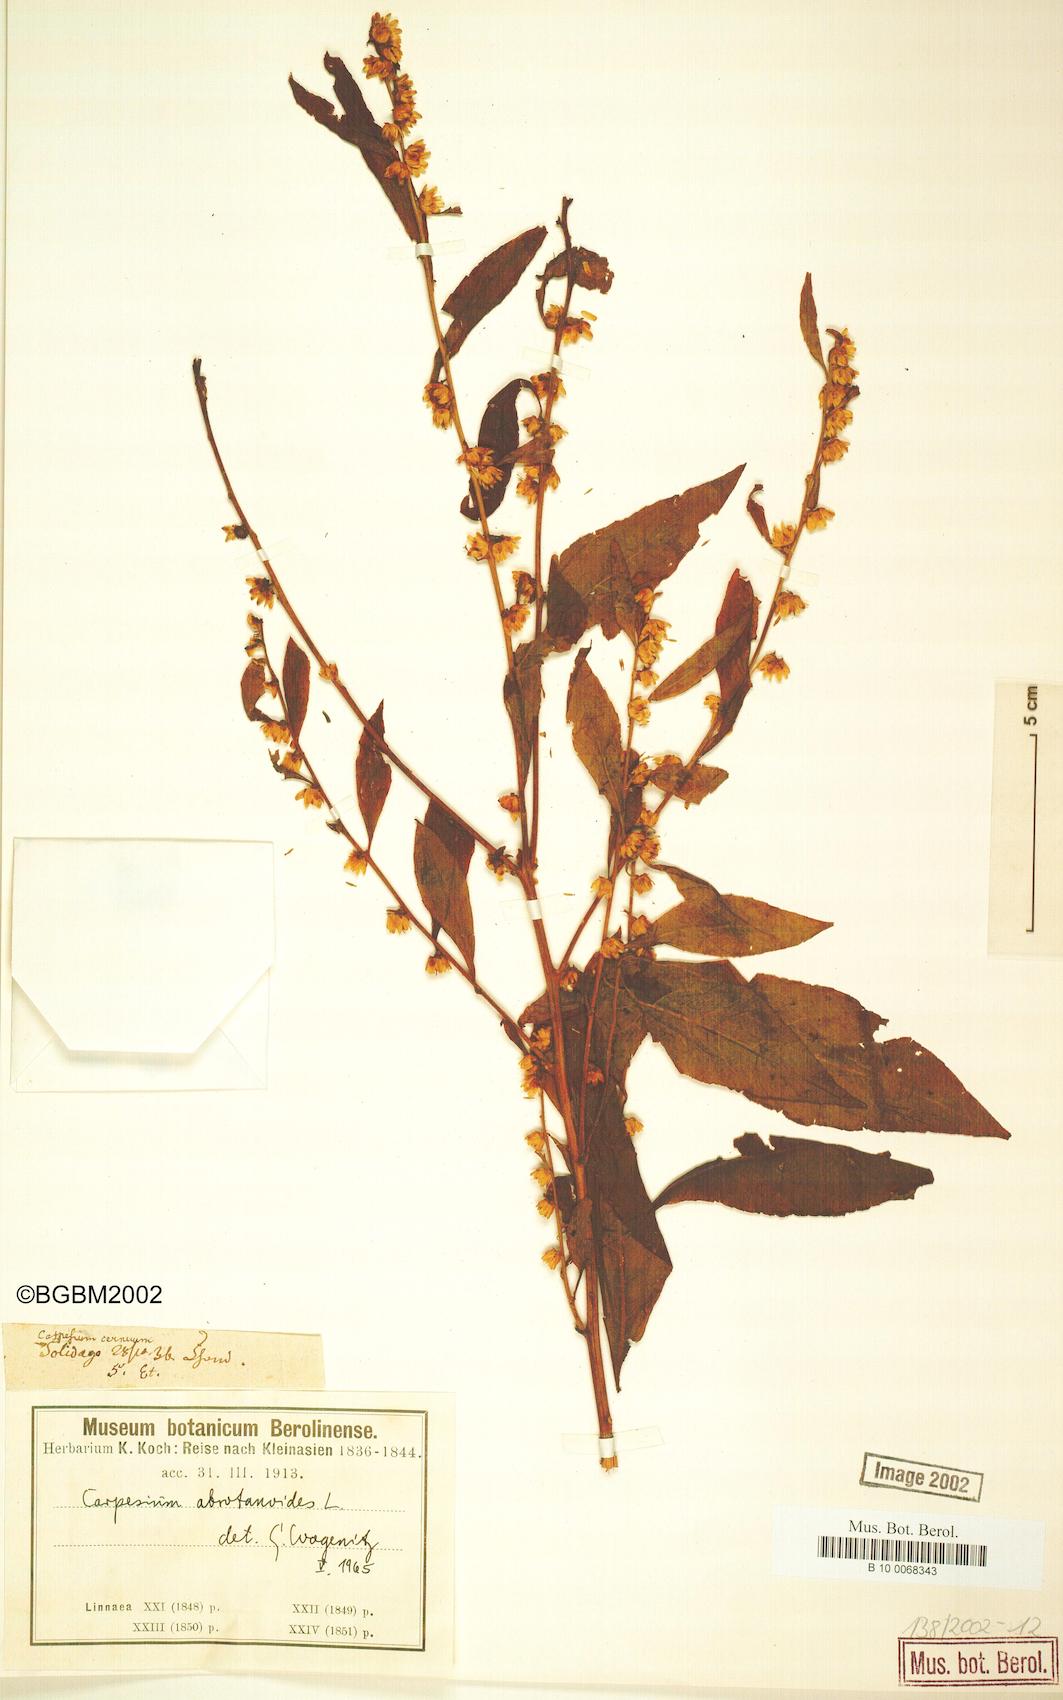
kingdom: Plantae
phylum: Tracheophyta
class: Magnoliopsida
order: Asterales
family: Asteraceae
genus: Carpesium
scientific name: Carpesium abrotanoides
